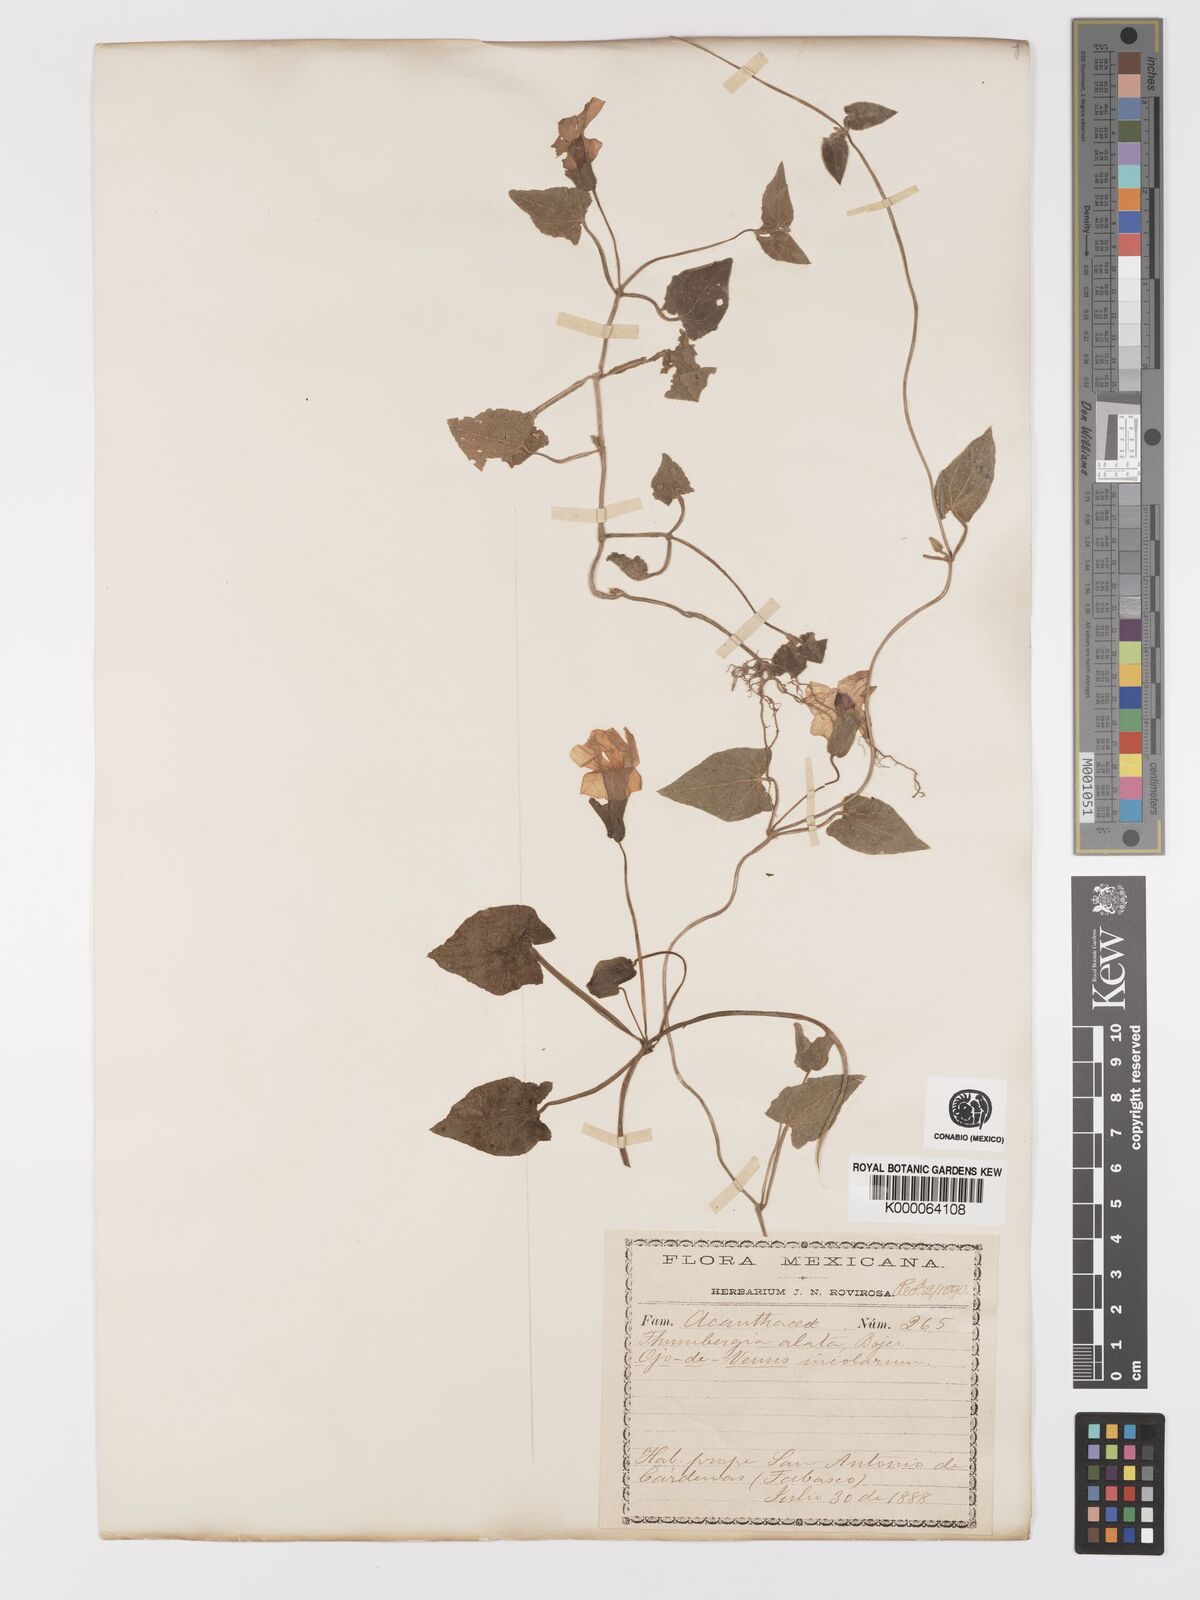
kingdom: Plantae
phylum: Tracheophyta
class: Magnoliopsida
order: Lamiales
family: Acanthaceae
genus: Thunbergia
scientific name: Thunbergia alata
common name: Blackeyed susan vine
